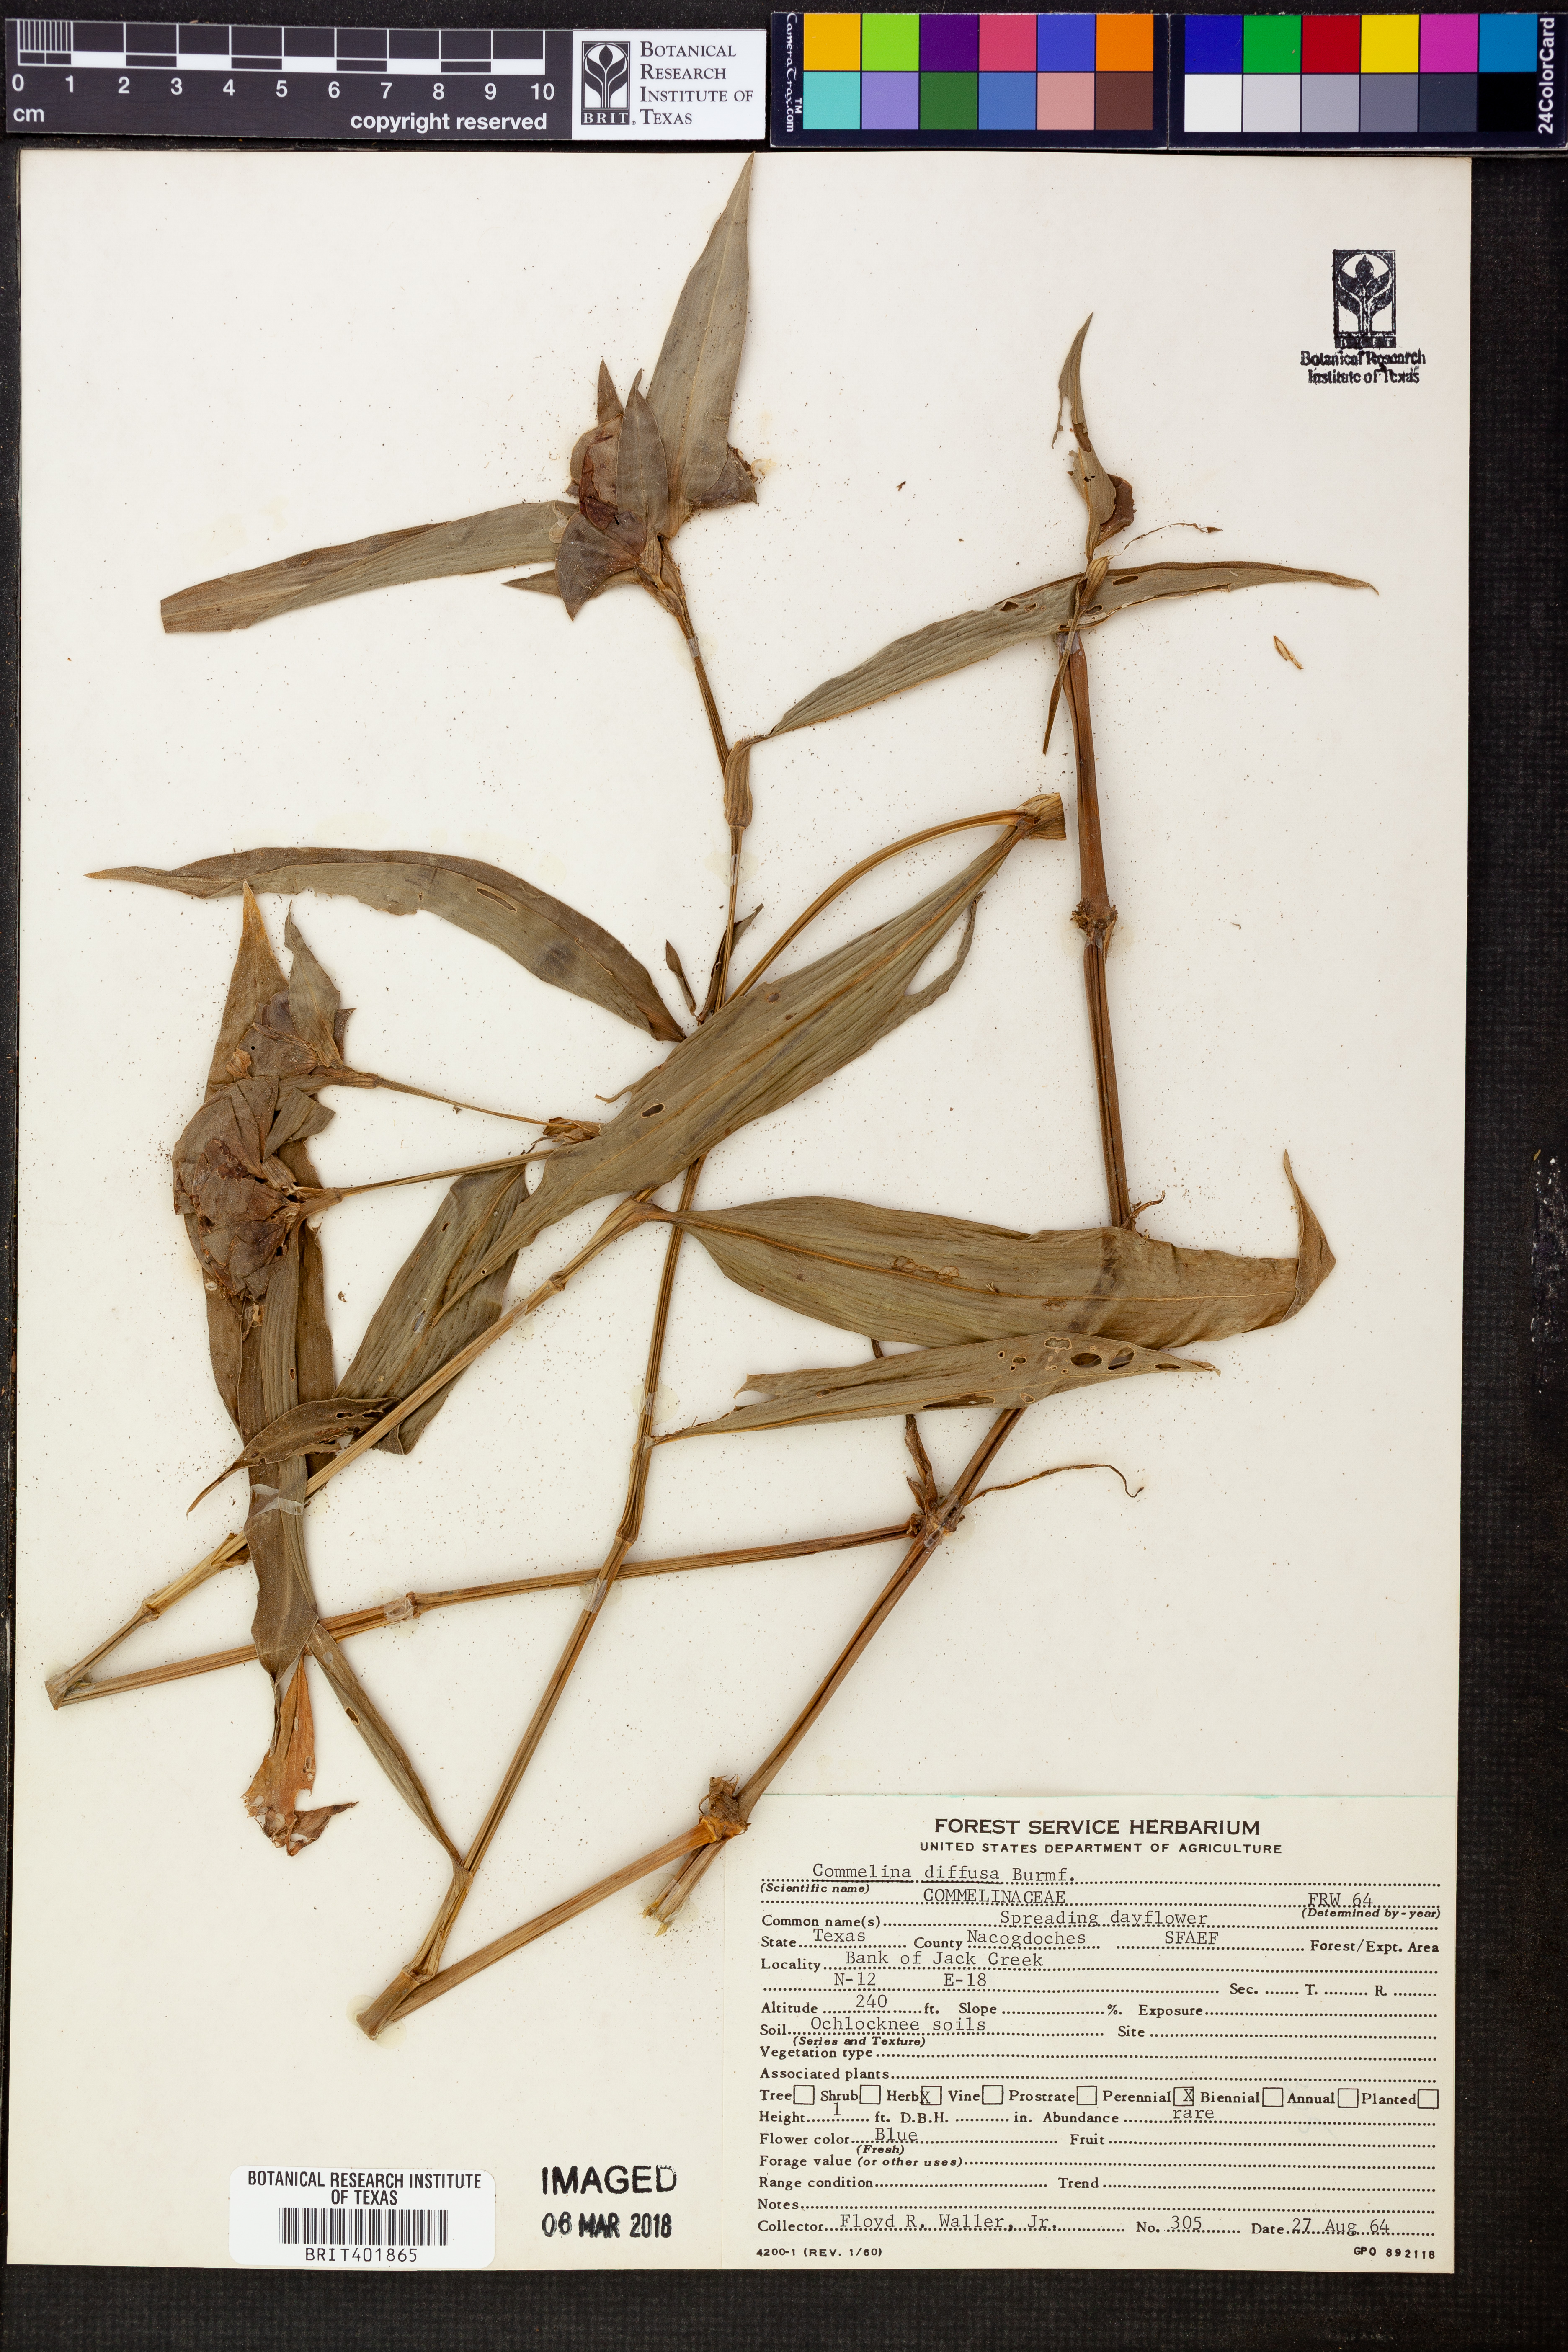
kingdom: Plantae
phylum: Tracheophyta
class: Liliopsida
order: Commelinales
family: Commelinaceae
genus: Commelina
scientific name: Commelina diffusa
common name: Climbing dayflower
